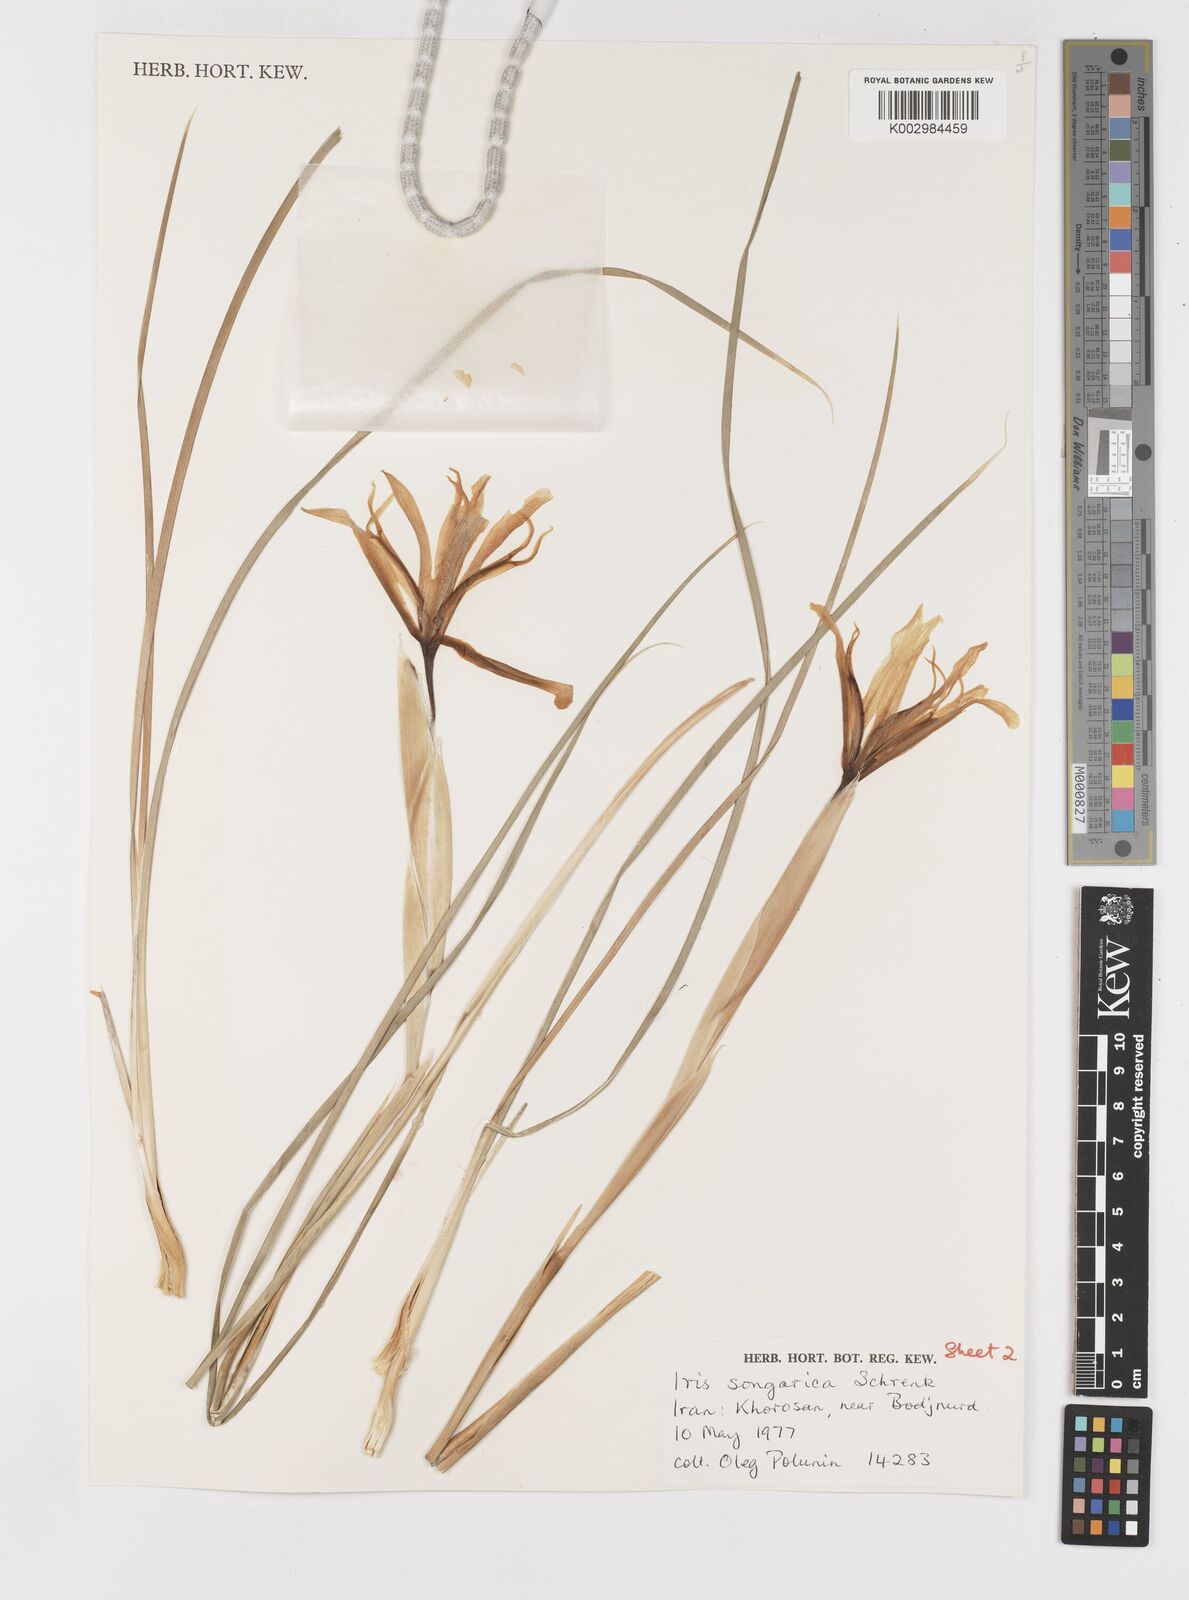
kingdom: Plantae
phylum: Tracheophyta
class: Liliopsida
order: Asparagales
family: Iridaceae
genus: Iris
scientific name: Iris songarica
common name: Songar iris
